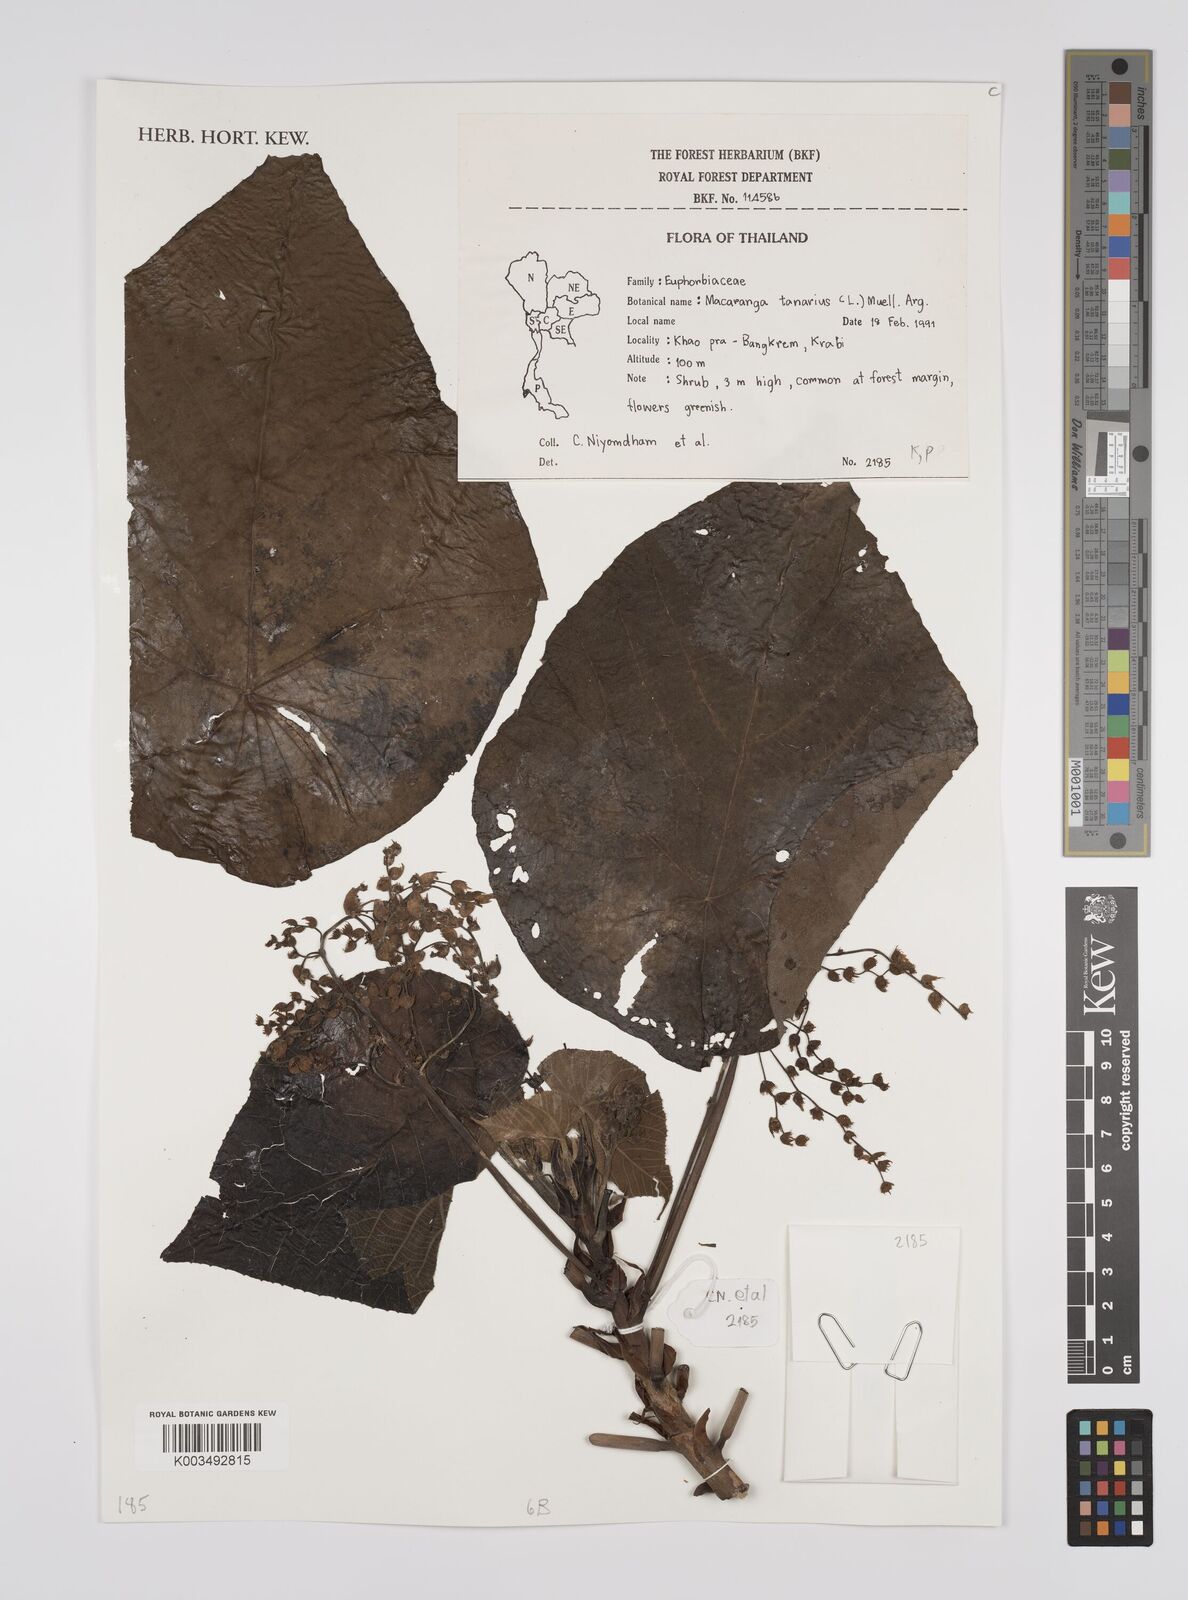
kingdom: Plantae
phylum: Tracheophyta
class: Magnoliopsida
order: Malpighiales
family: Euphorbiaceae
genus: Macaranga
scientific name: Macaranga tanarius
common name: Parasol leaf tree
